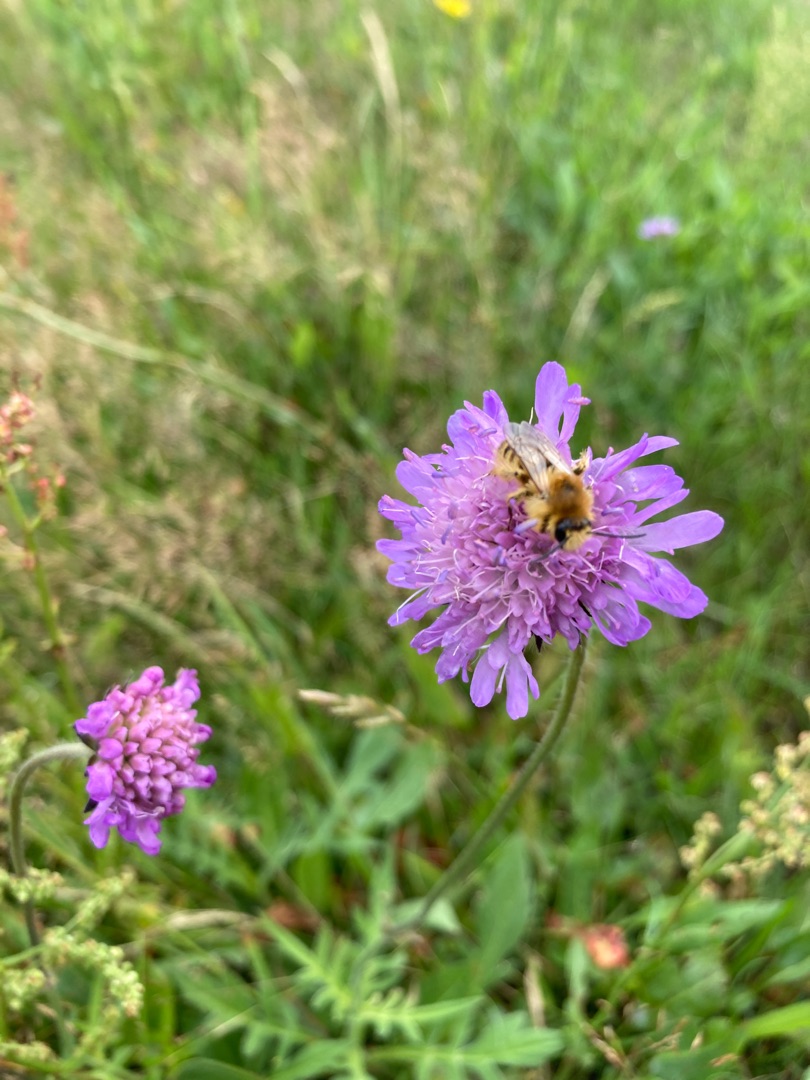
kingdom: Plantae
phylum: Tracheophyta
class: Magnoliopsida
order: Dipsacales
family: Caprifoliaceae
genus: Knautia
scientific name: Knautia arvensis
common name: Blåhat
